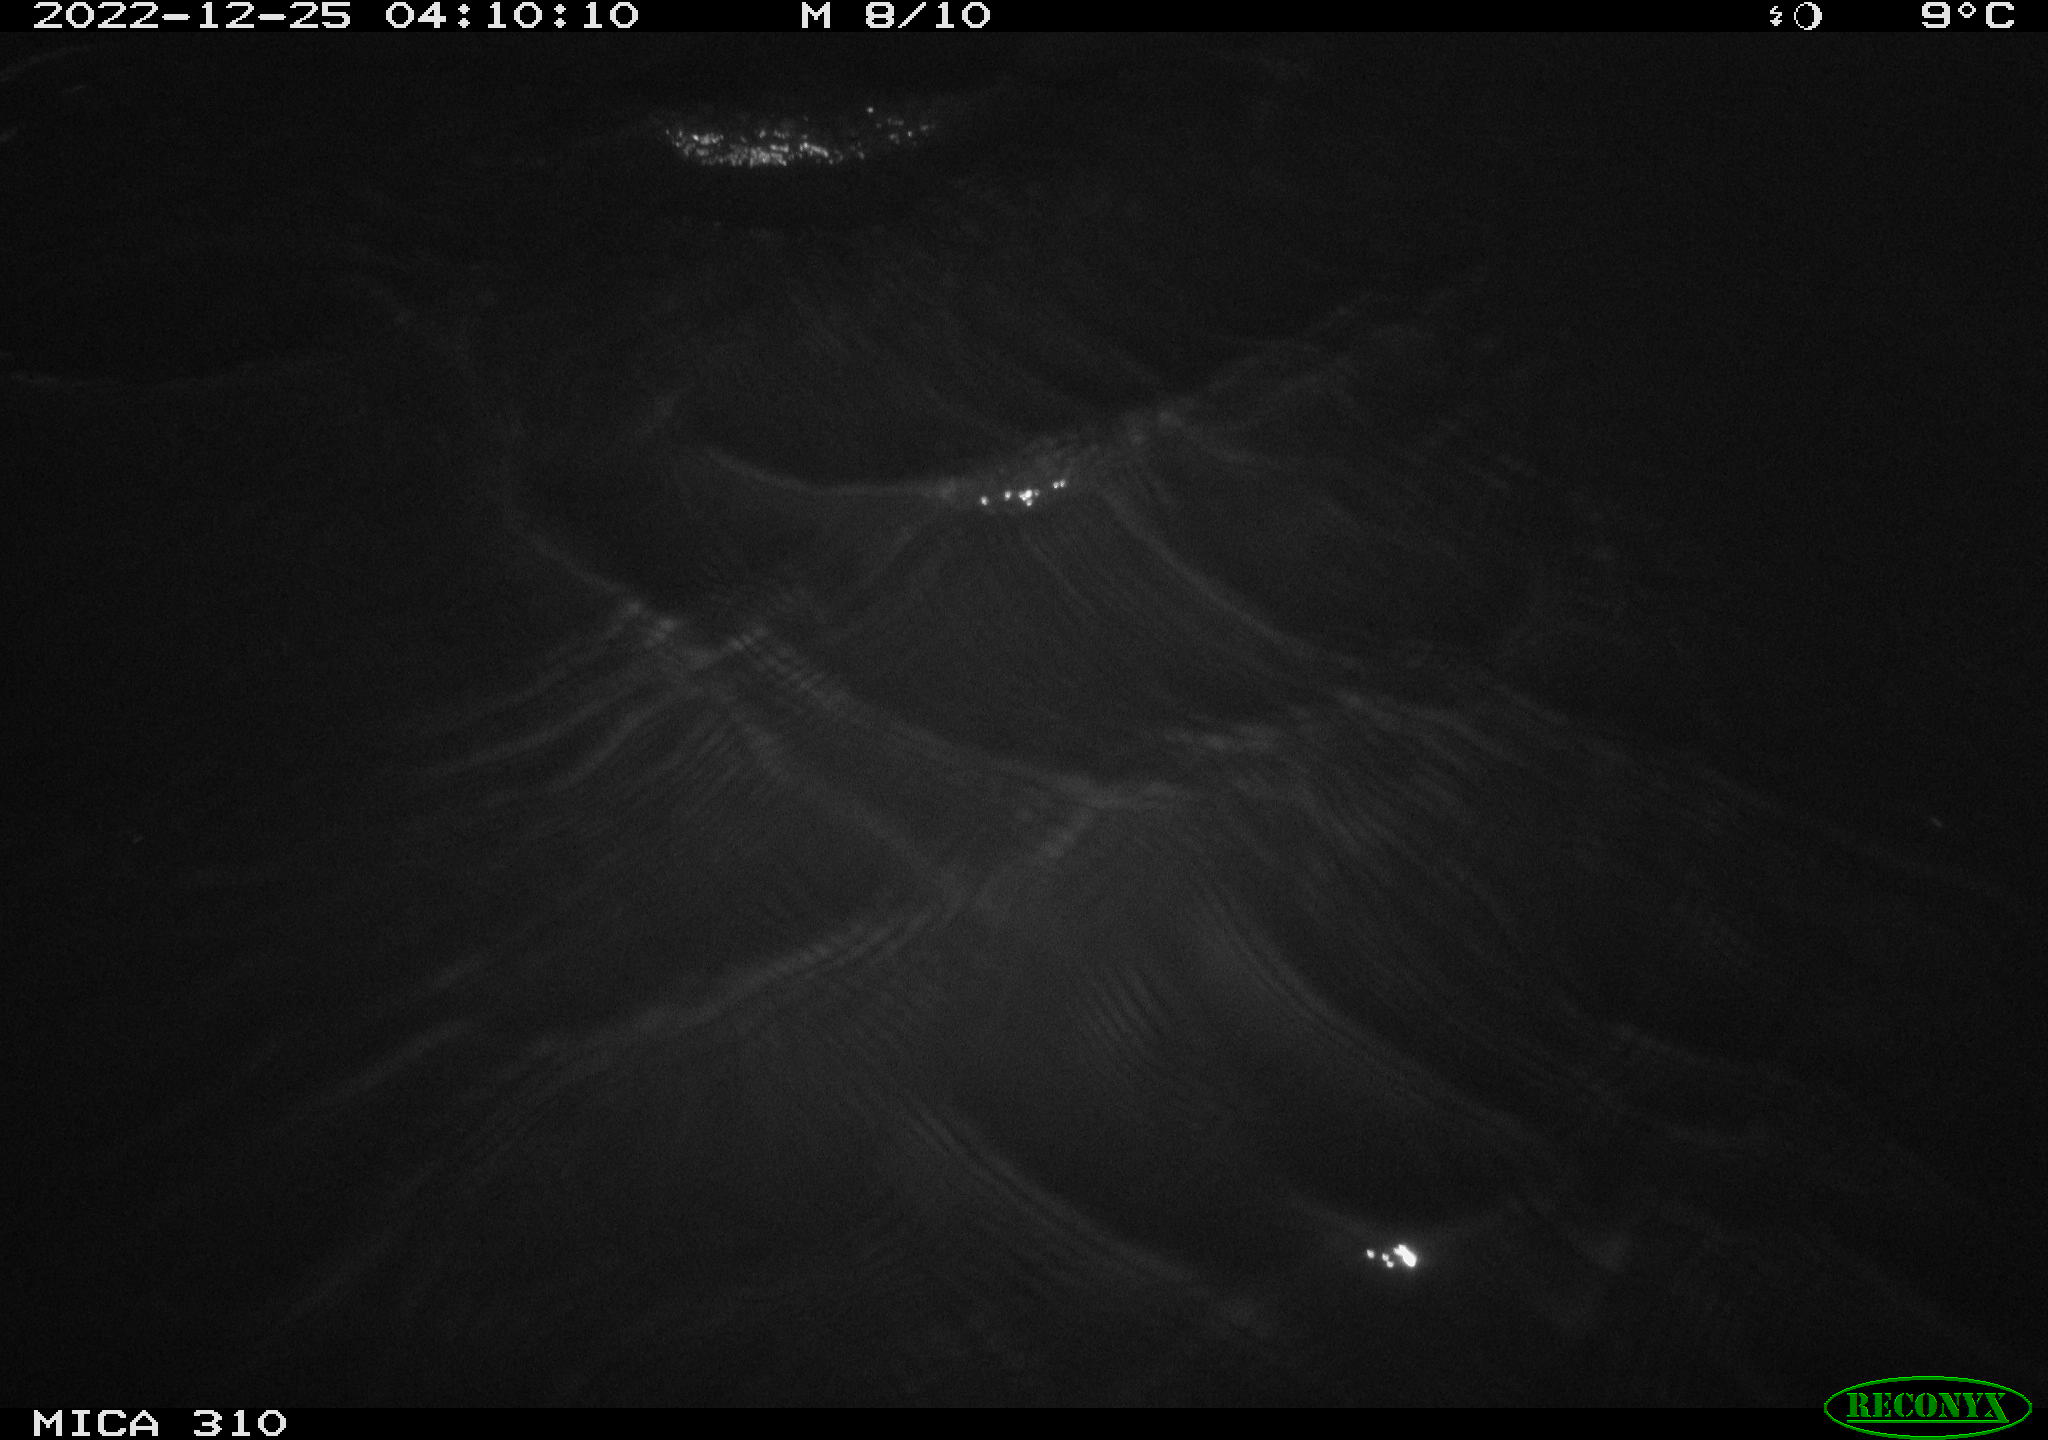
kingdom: Animalia
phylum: Chordata
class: Mammalia
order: Rodentia
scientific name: Rodentia
